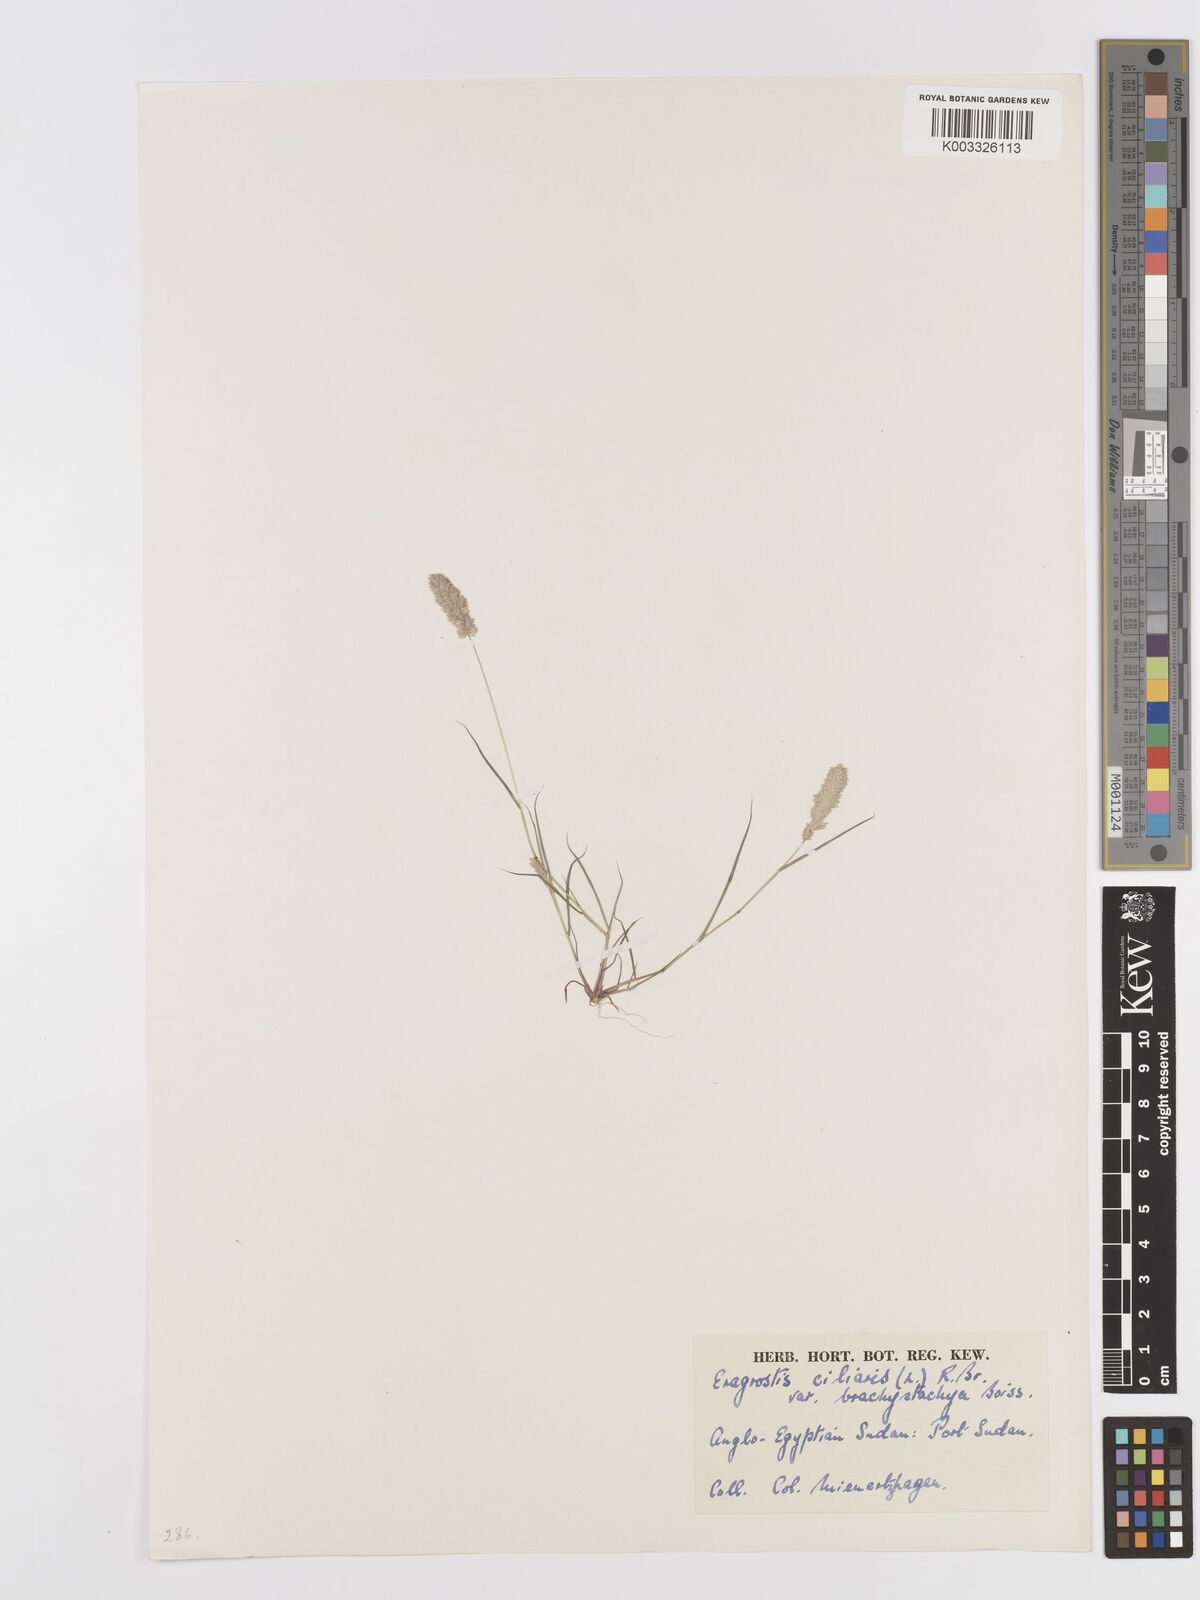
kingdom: Plantae
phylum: Tracheophyta
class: Liliopsida
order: Poales
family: Poaceae
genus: Eragrostis
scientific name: Eragrostis ciliaris
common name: Gophertail lovegrass
